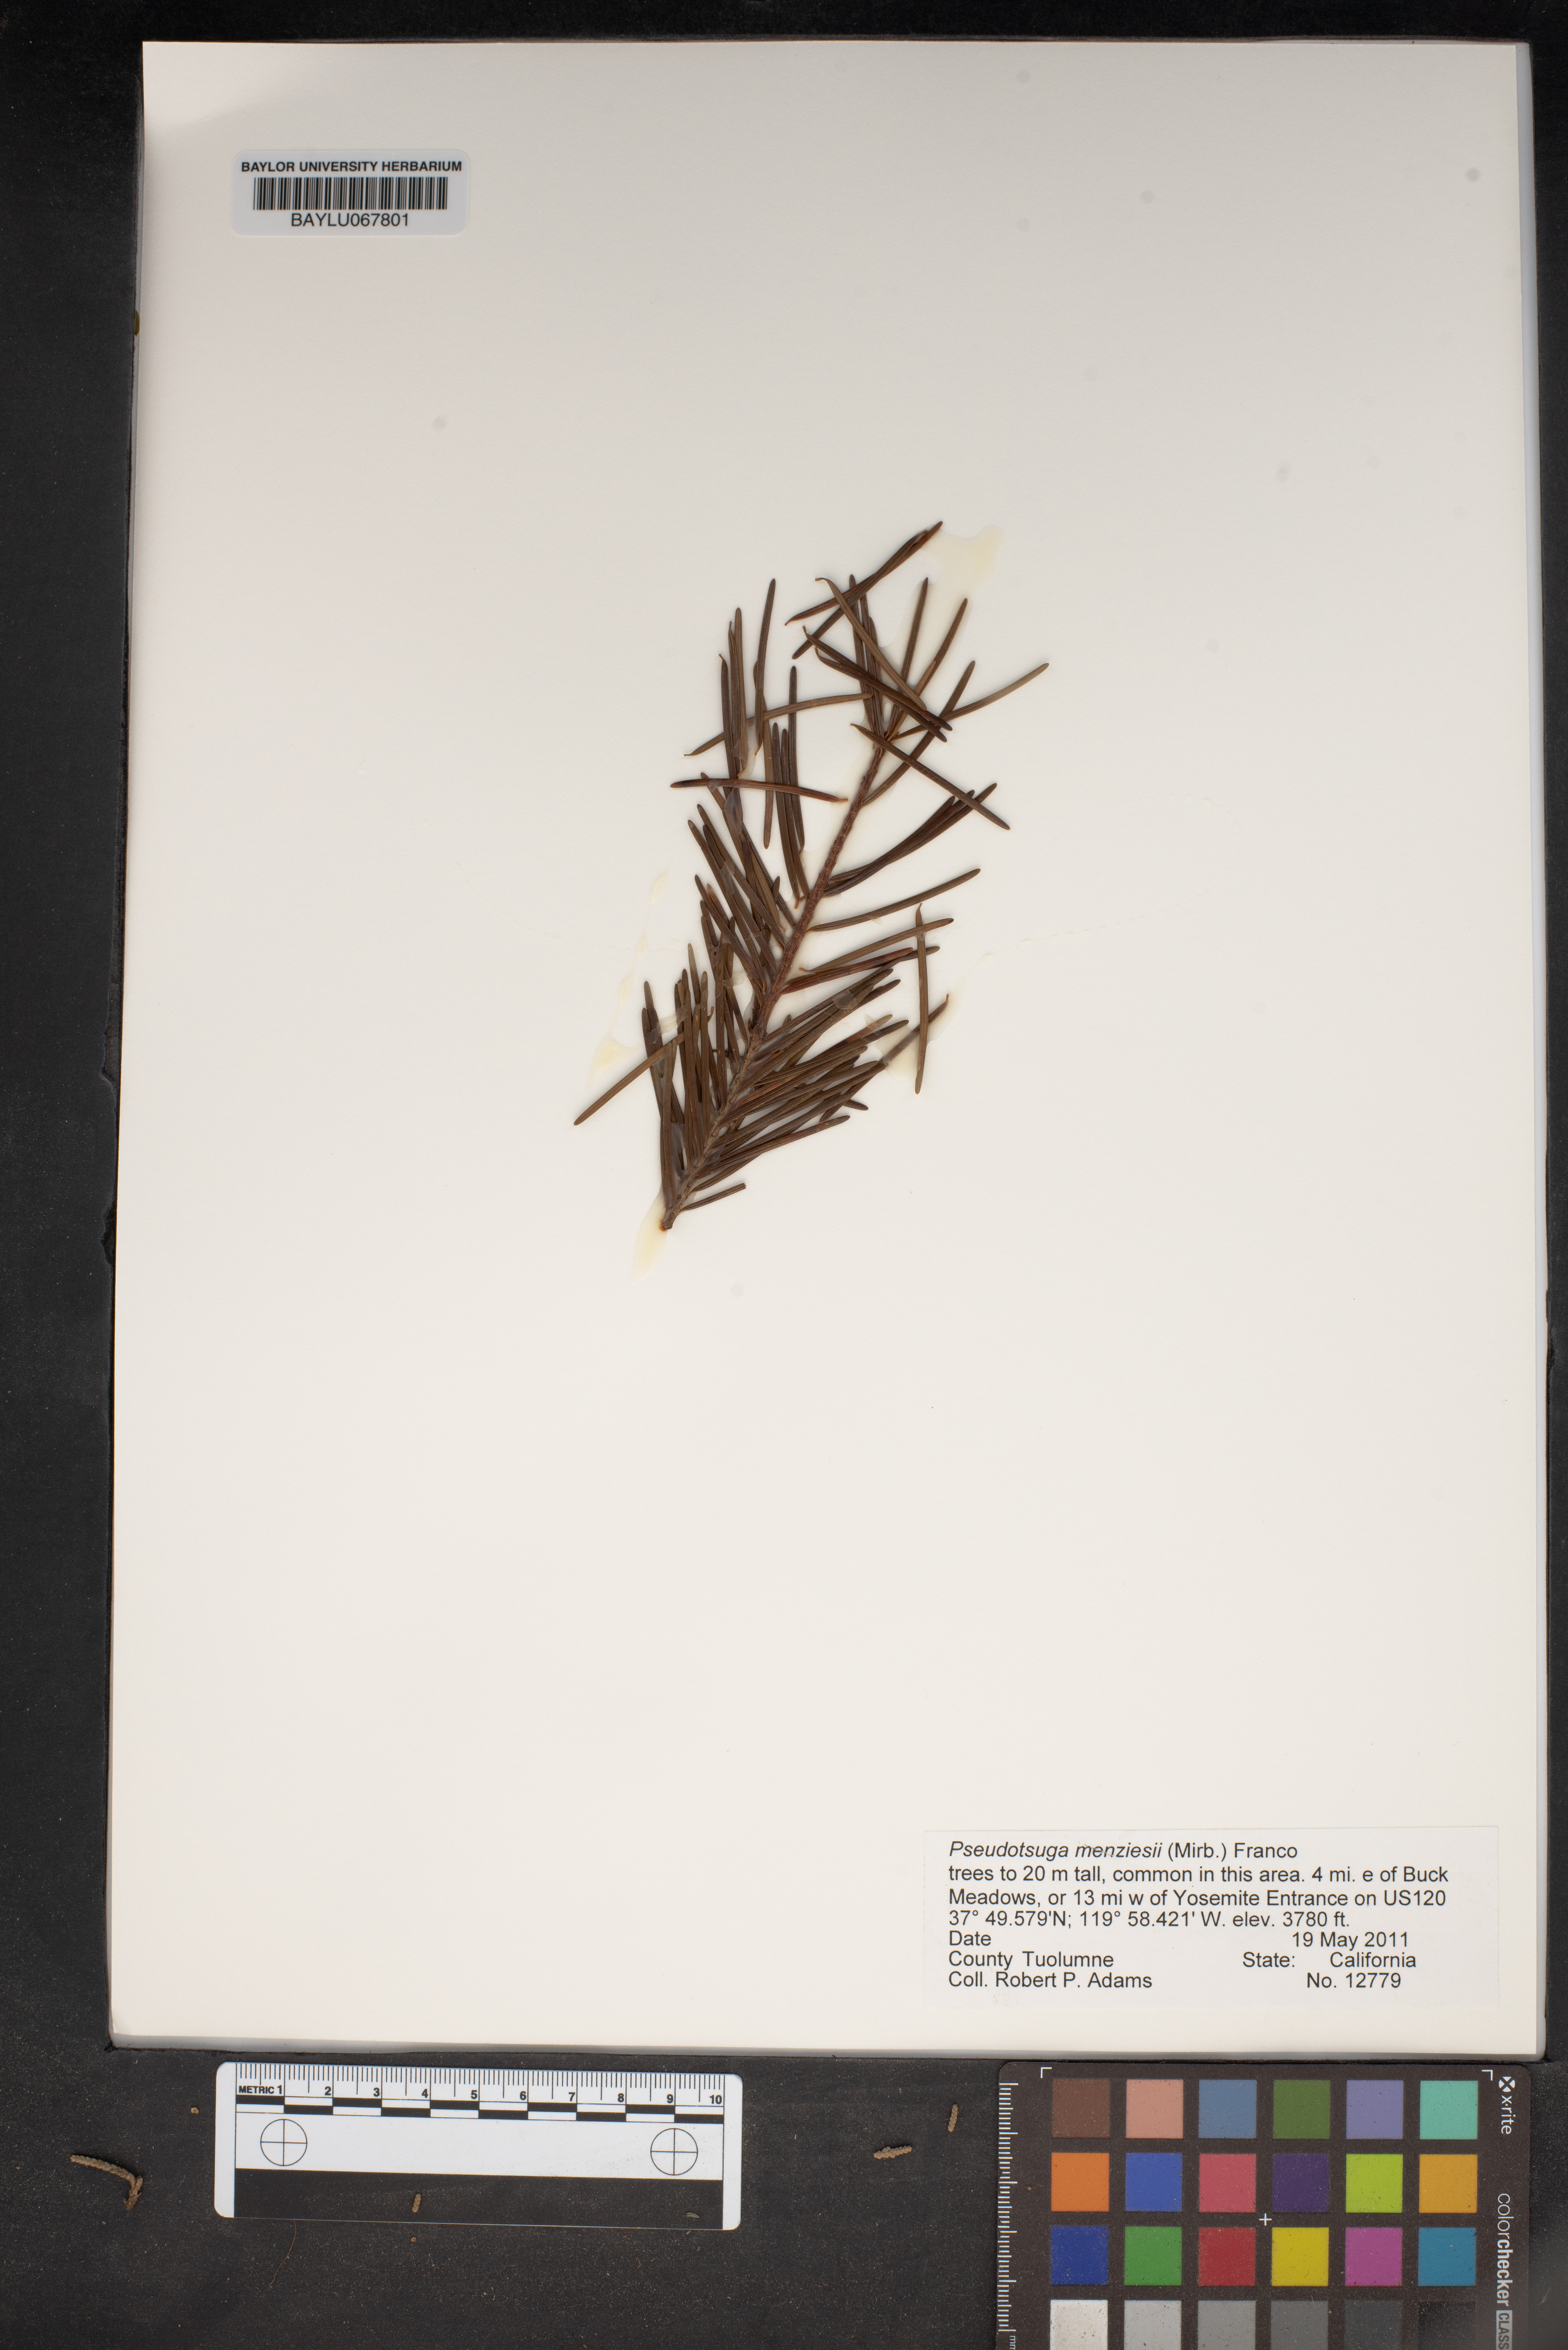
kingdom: Plantae
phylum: Tracheophyta
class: Pinopsida
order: Pinales
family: Pinaceae
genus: Pseudotsuga
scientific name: Pseudotsuga menziesii
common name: Douglas fir
